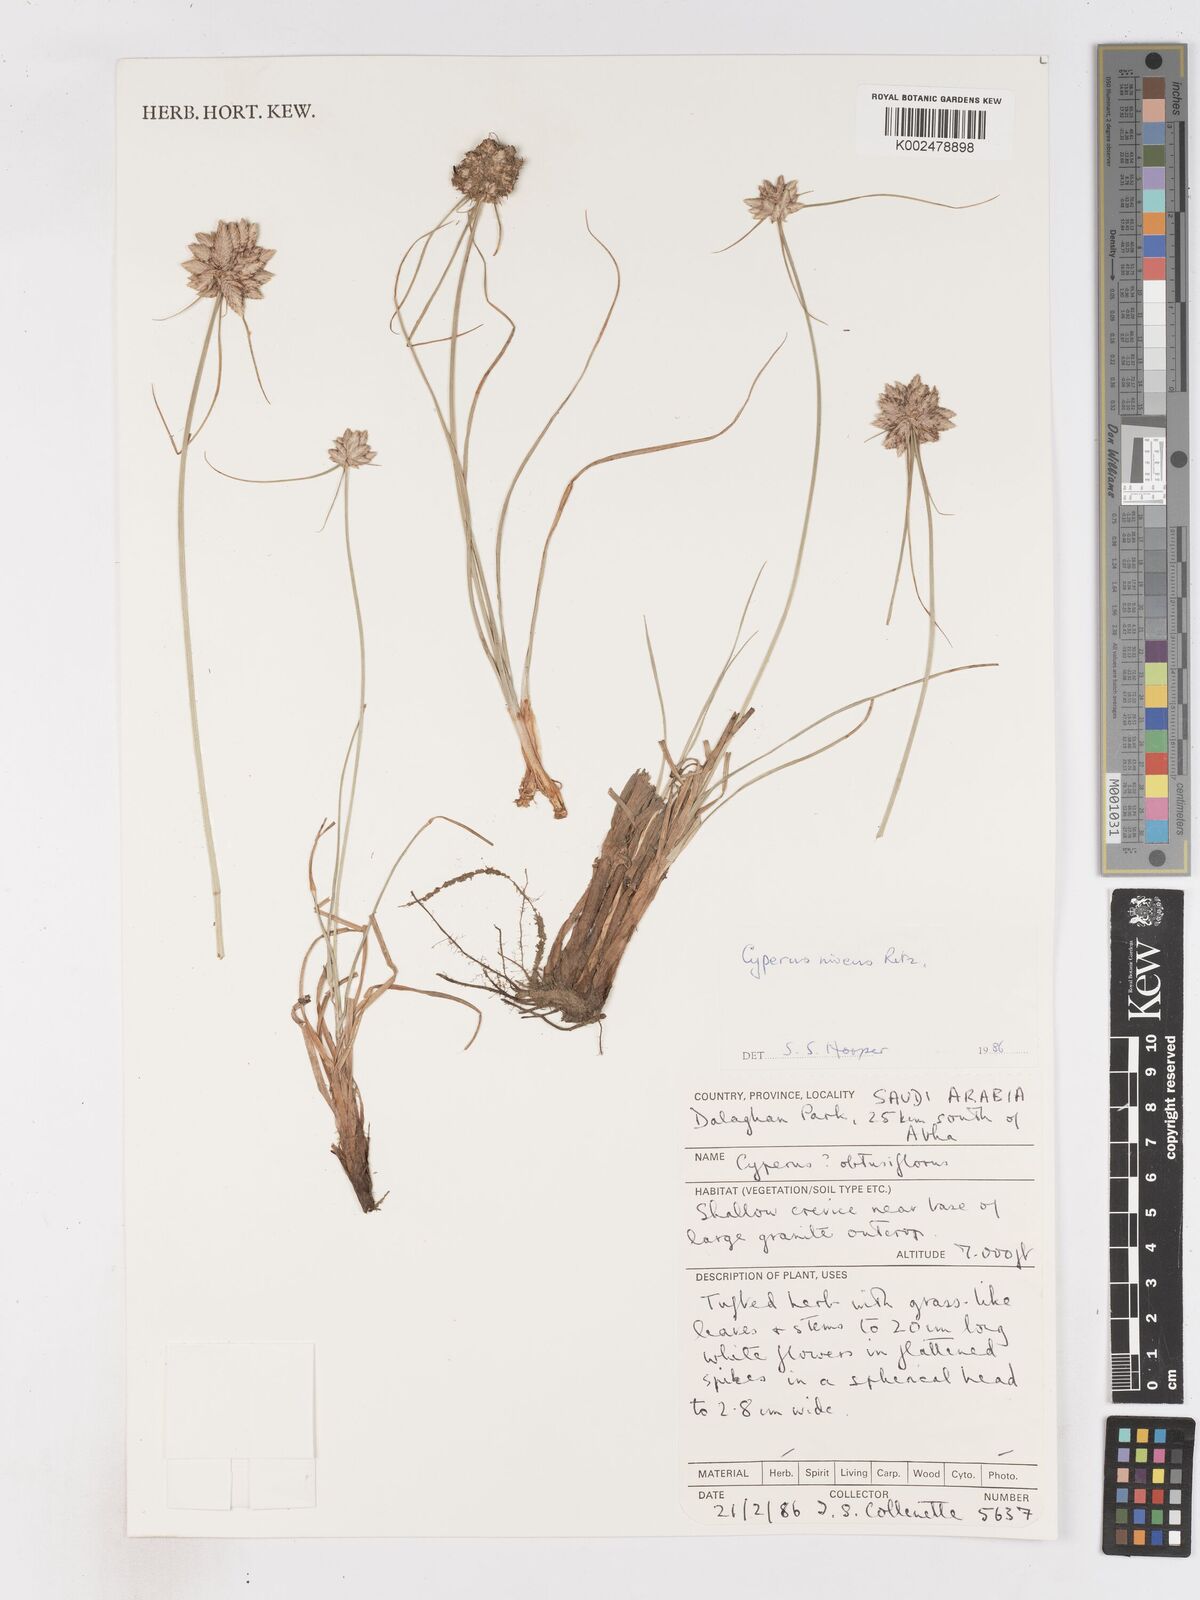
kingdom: Plantae
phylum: Tracheophyta
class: Liliopsida
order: Poales
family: Cyperaceae
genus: Cyperus
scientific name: Cyperus niveus
